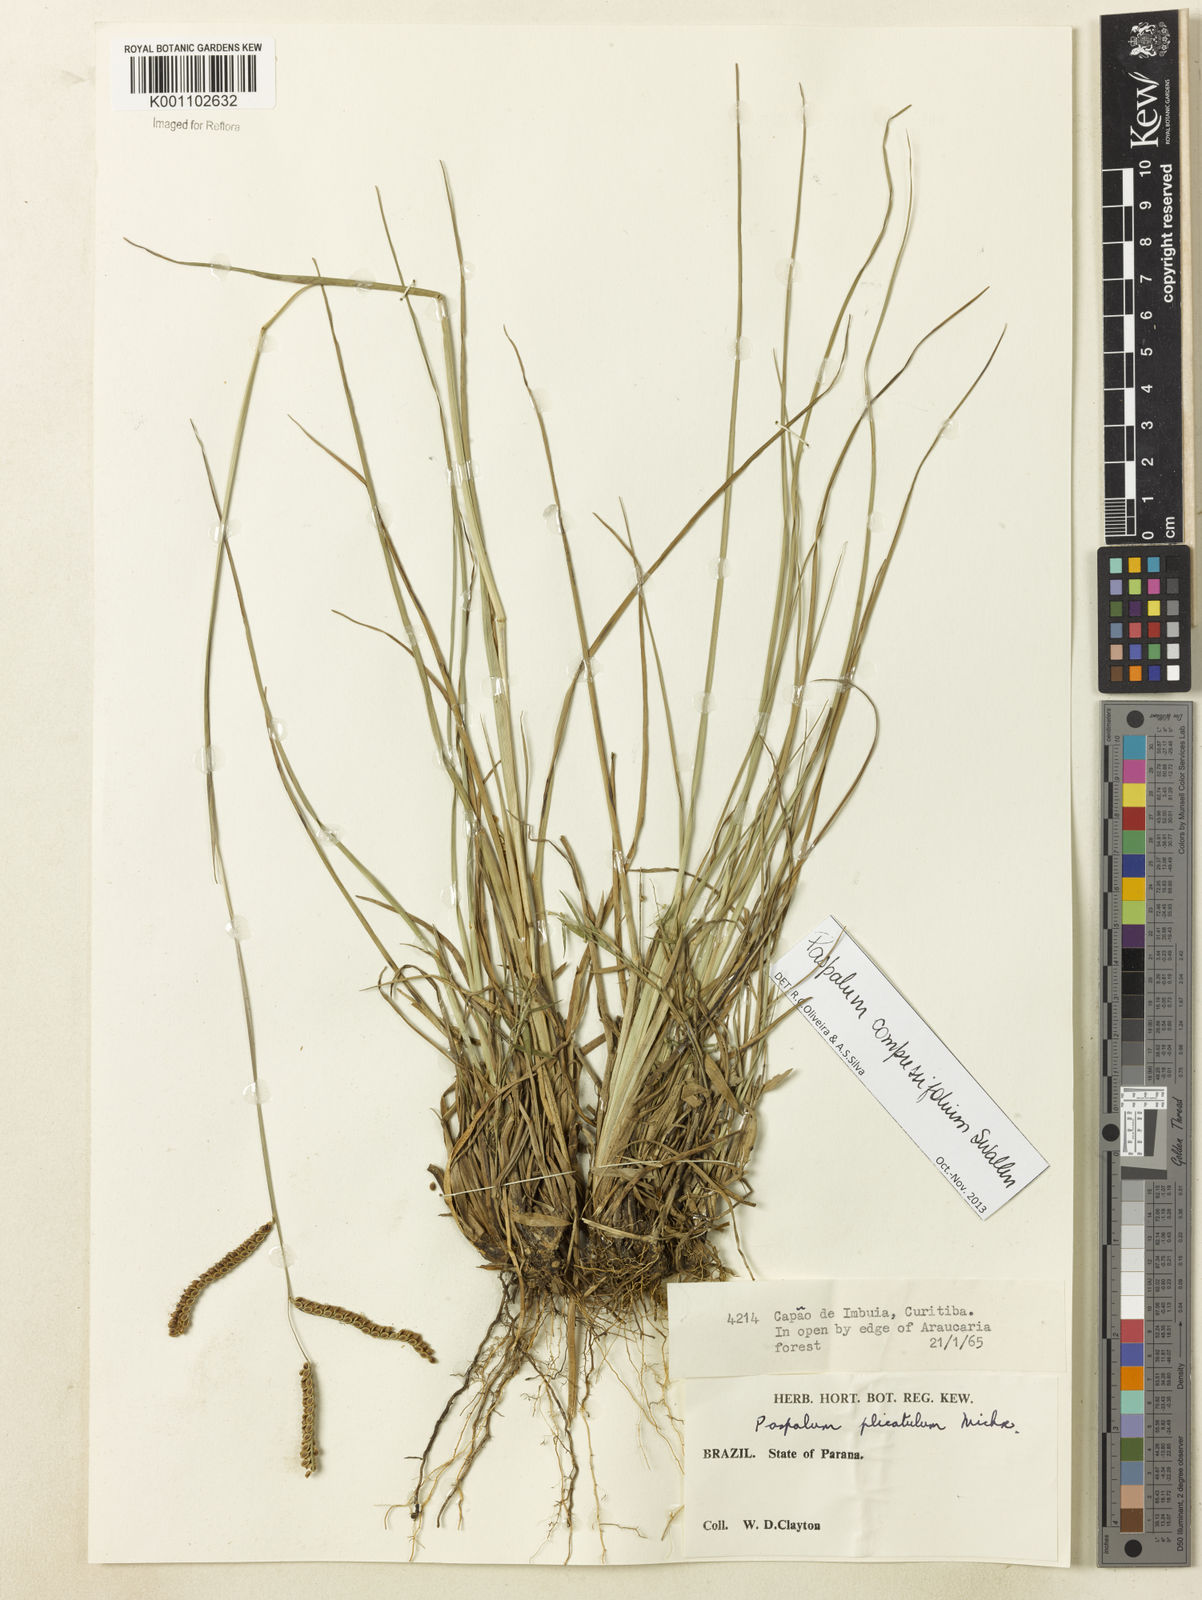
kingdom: Plantae
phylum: Tracheophyta
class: Liliopsida
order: Poales
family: Poaceae
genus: Paspalum
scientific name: Paspalum
